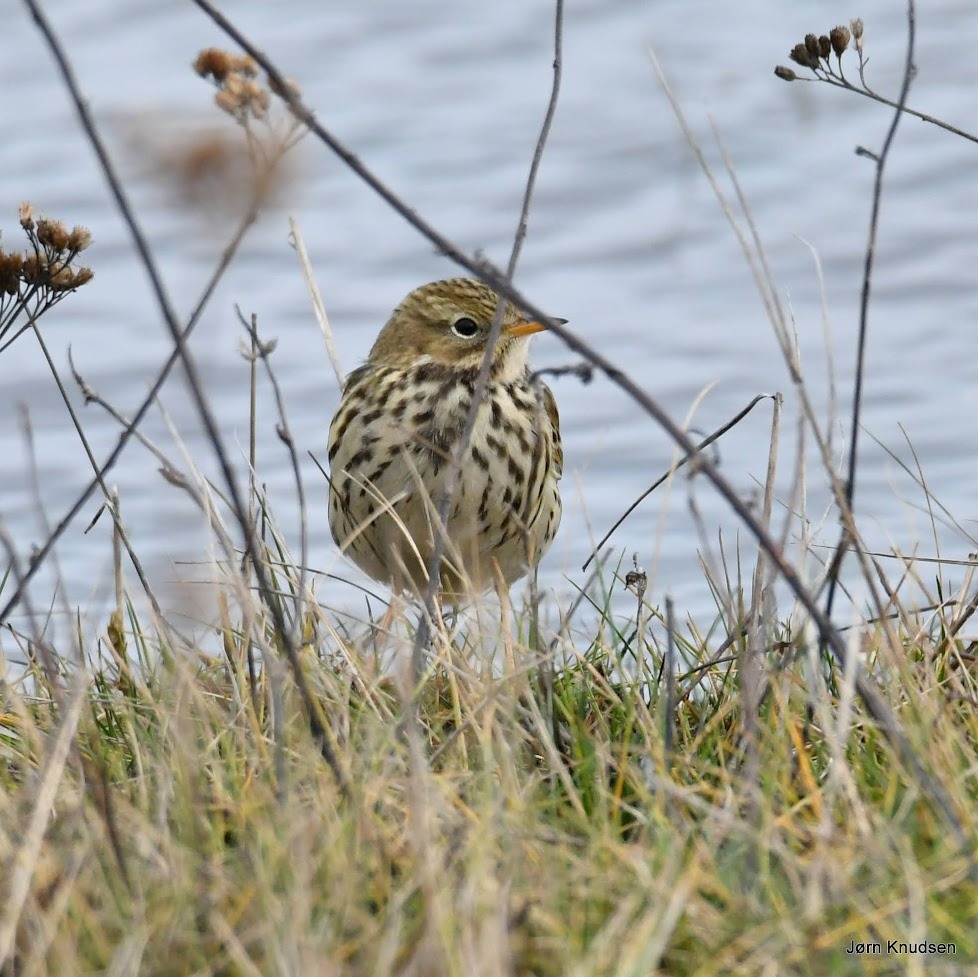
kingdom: Animalia
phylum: Chordata
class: Aves
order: Passeriformes
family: Motacillidae
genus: Anthus
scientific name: Anthus pratensis
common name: Engpiber
